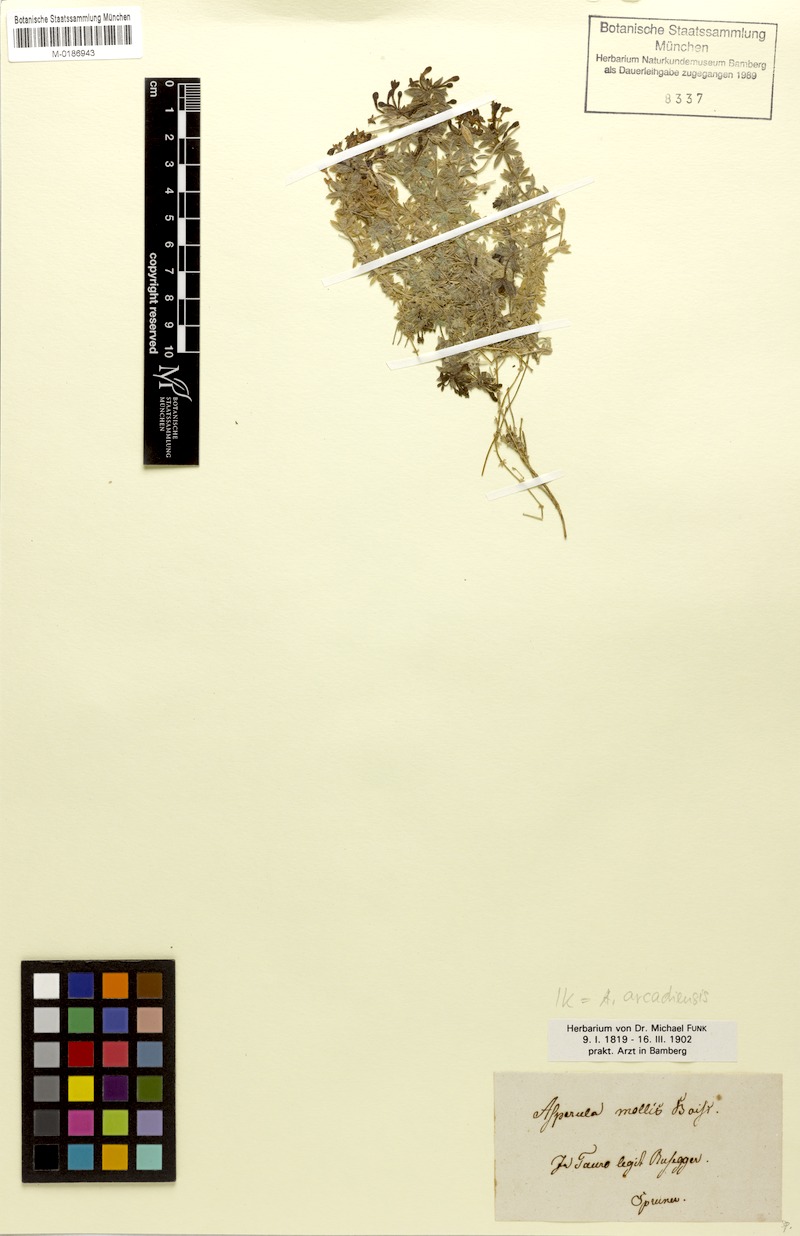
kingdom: Plantae
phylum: Tracheophyta
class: Magnoliopsida
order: Gentianales
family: Rubiaceae
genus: Hexaphylla
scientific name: Hexaphylla arcadiensis
